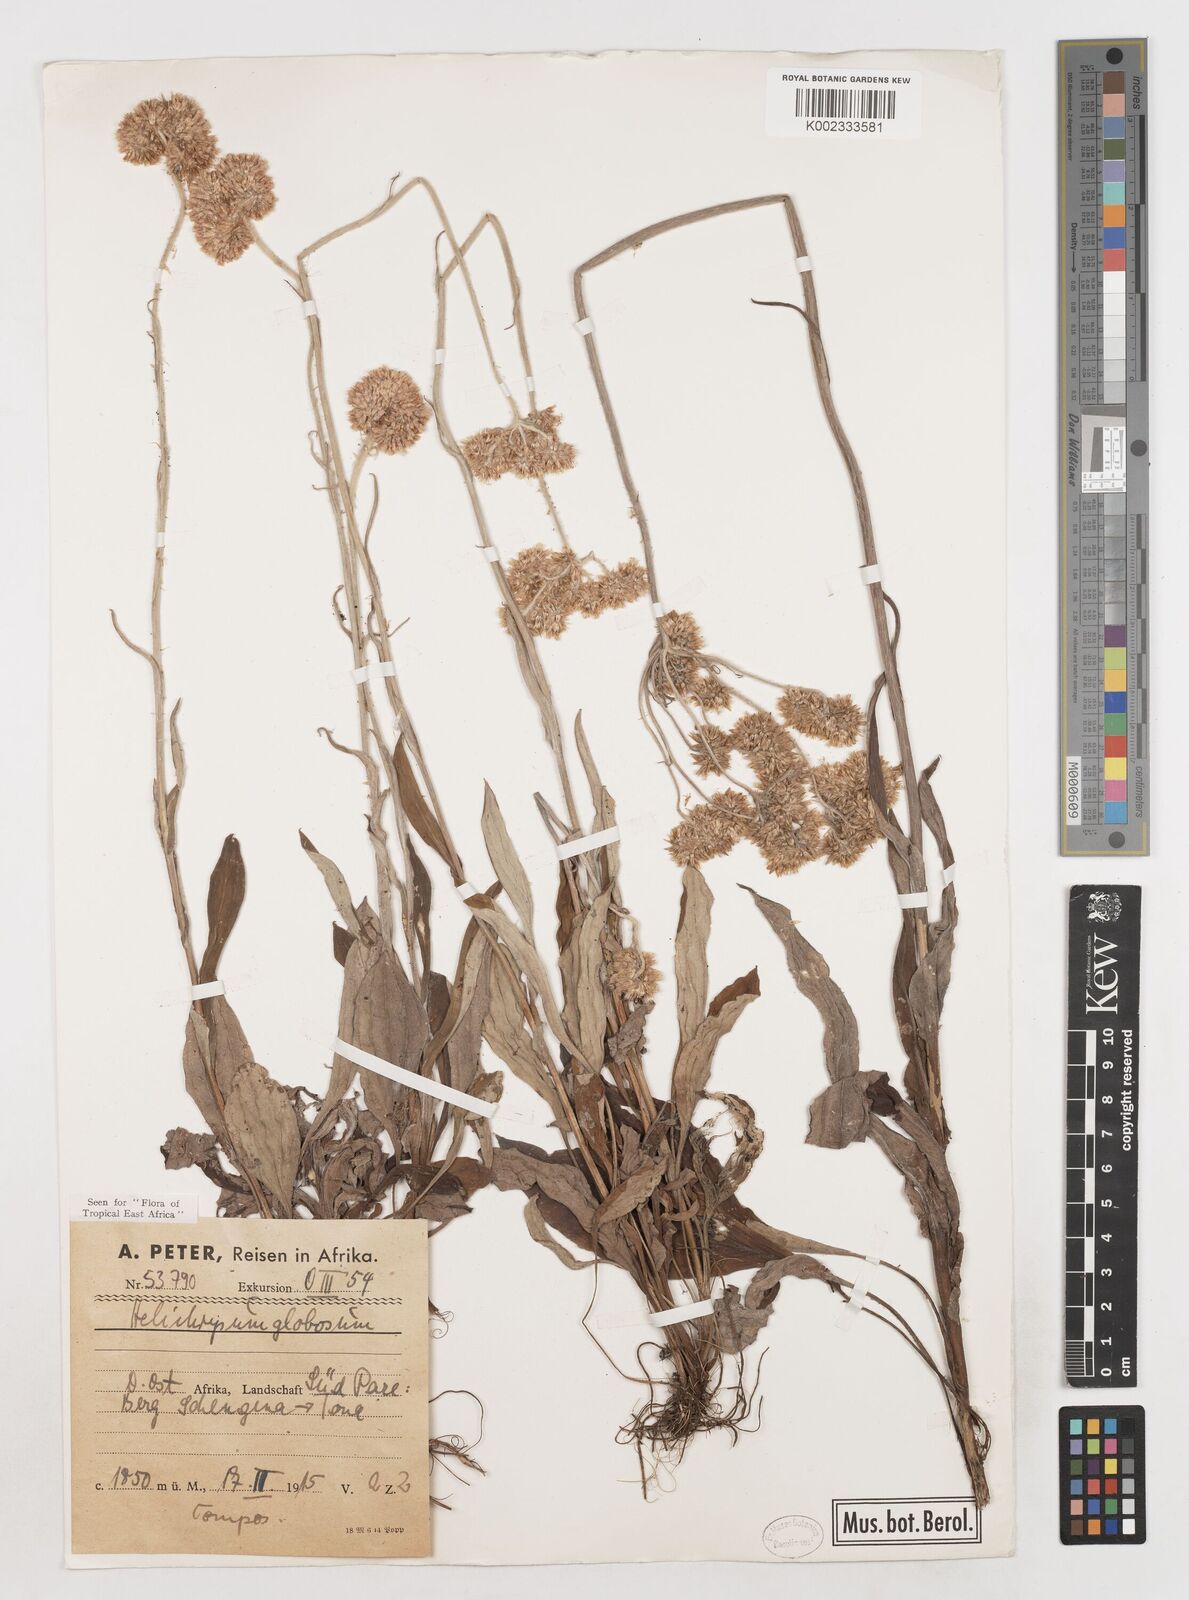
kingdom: Plantae
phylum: Tracheophyta
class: Magnoliopsida
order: Asterales
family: Asteraceae
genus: Helichrysum
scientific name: Helichrysum globosum
